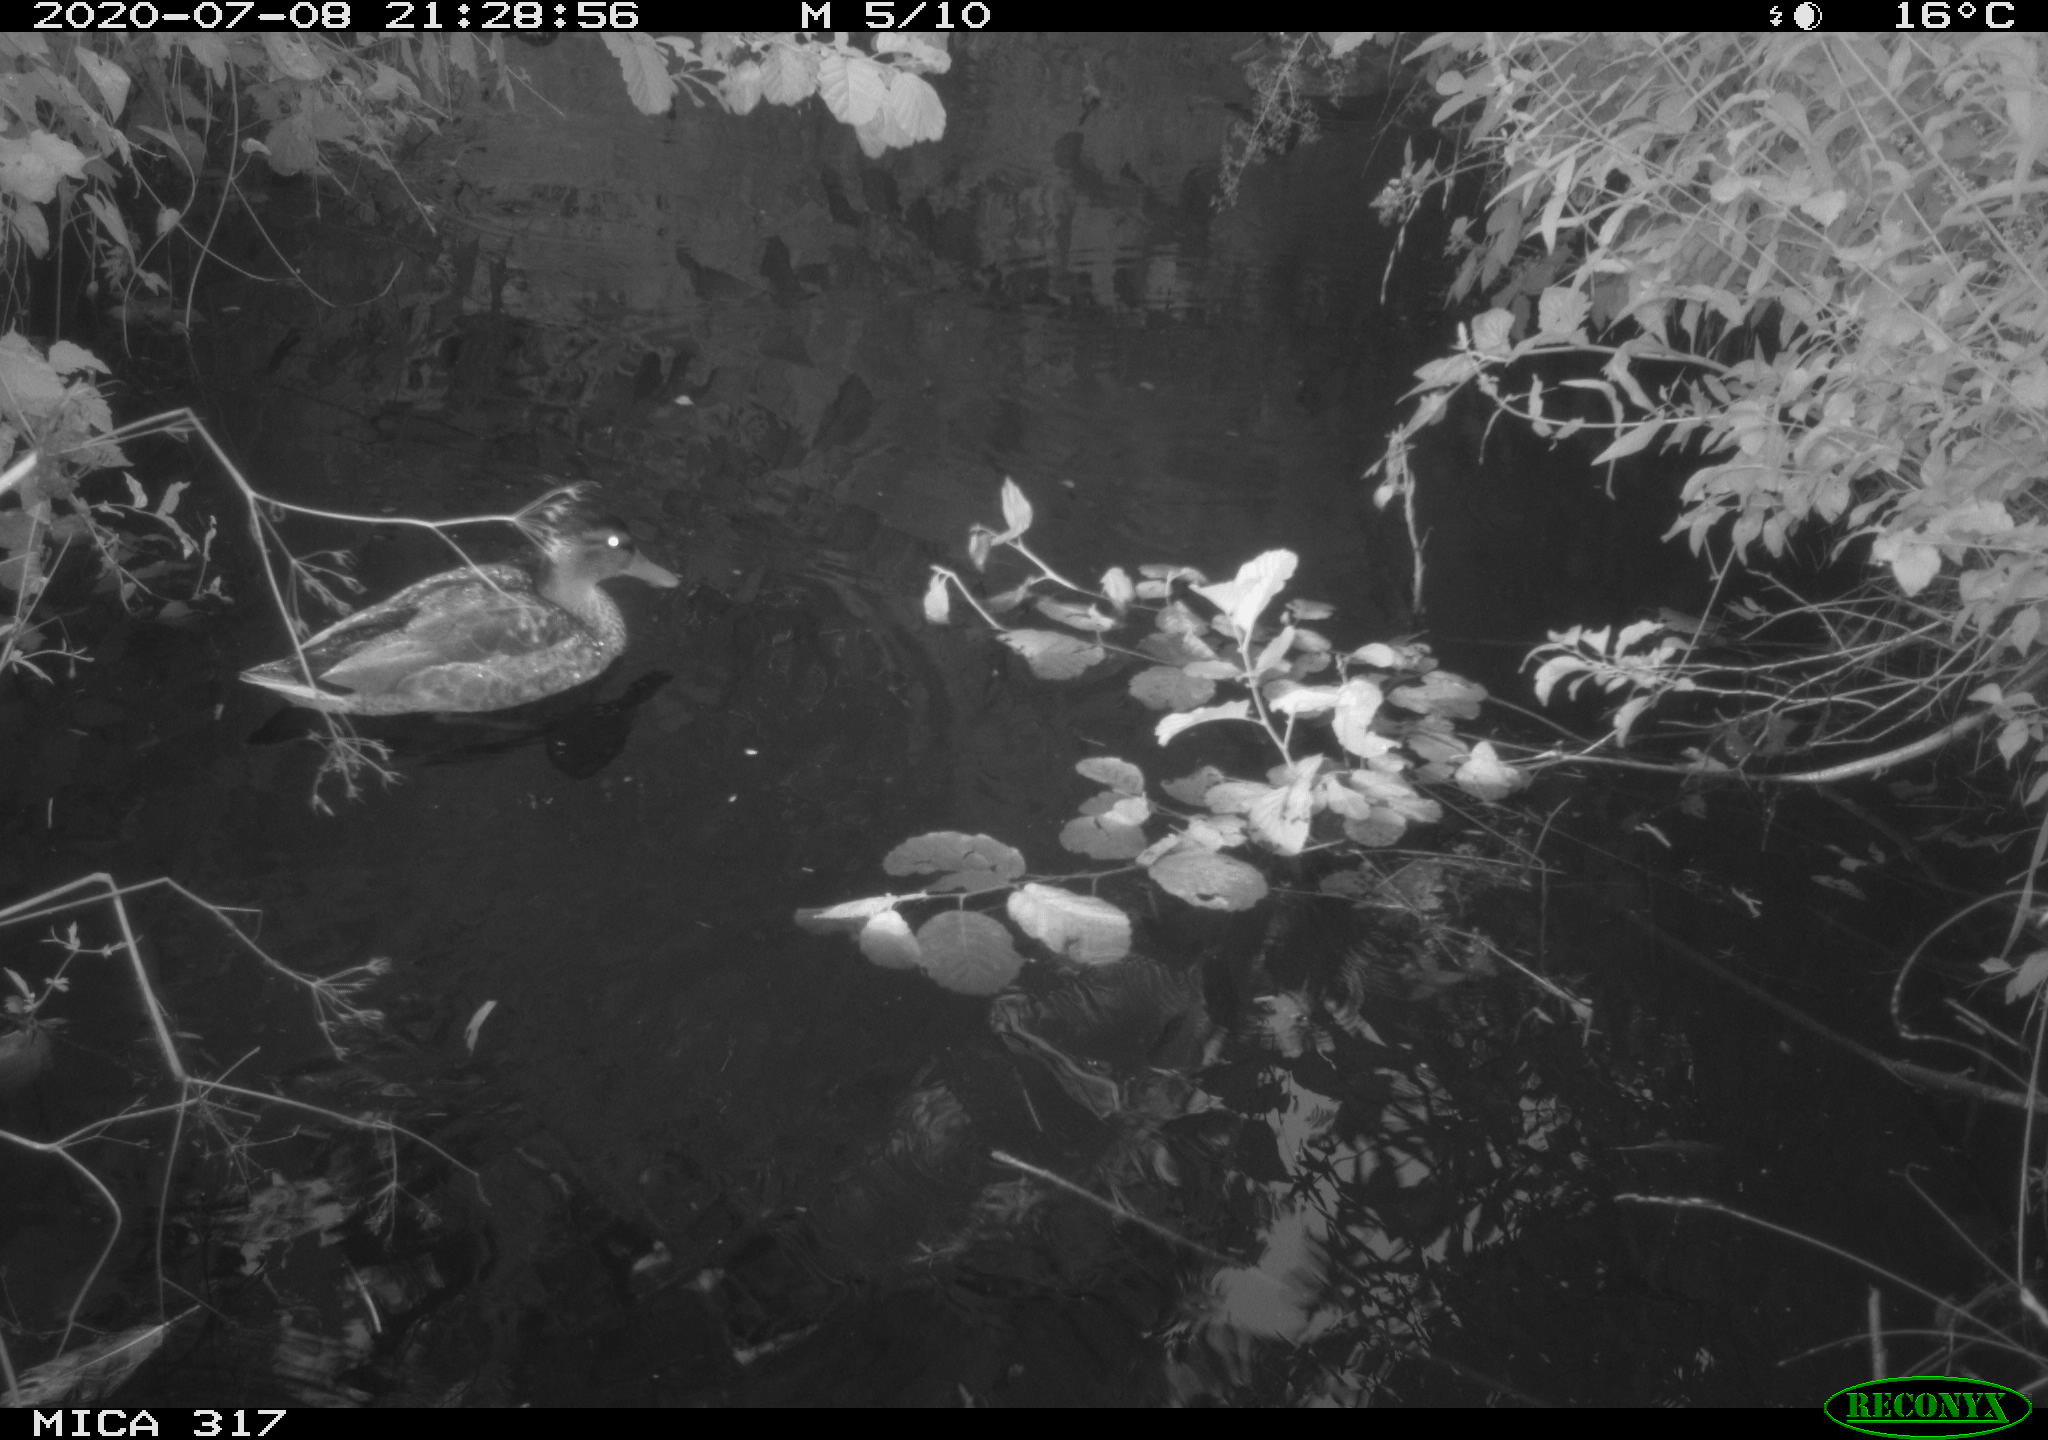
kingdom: Animalia
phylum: Chordata
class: Aves
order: Anseriformes
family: Anatidae
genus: Anas
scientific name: Anas platyrhynchos
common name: Mallard
